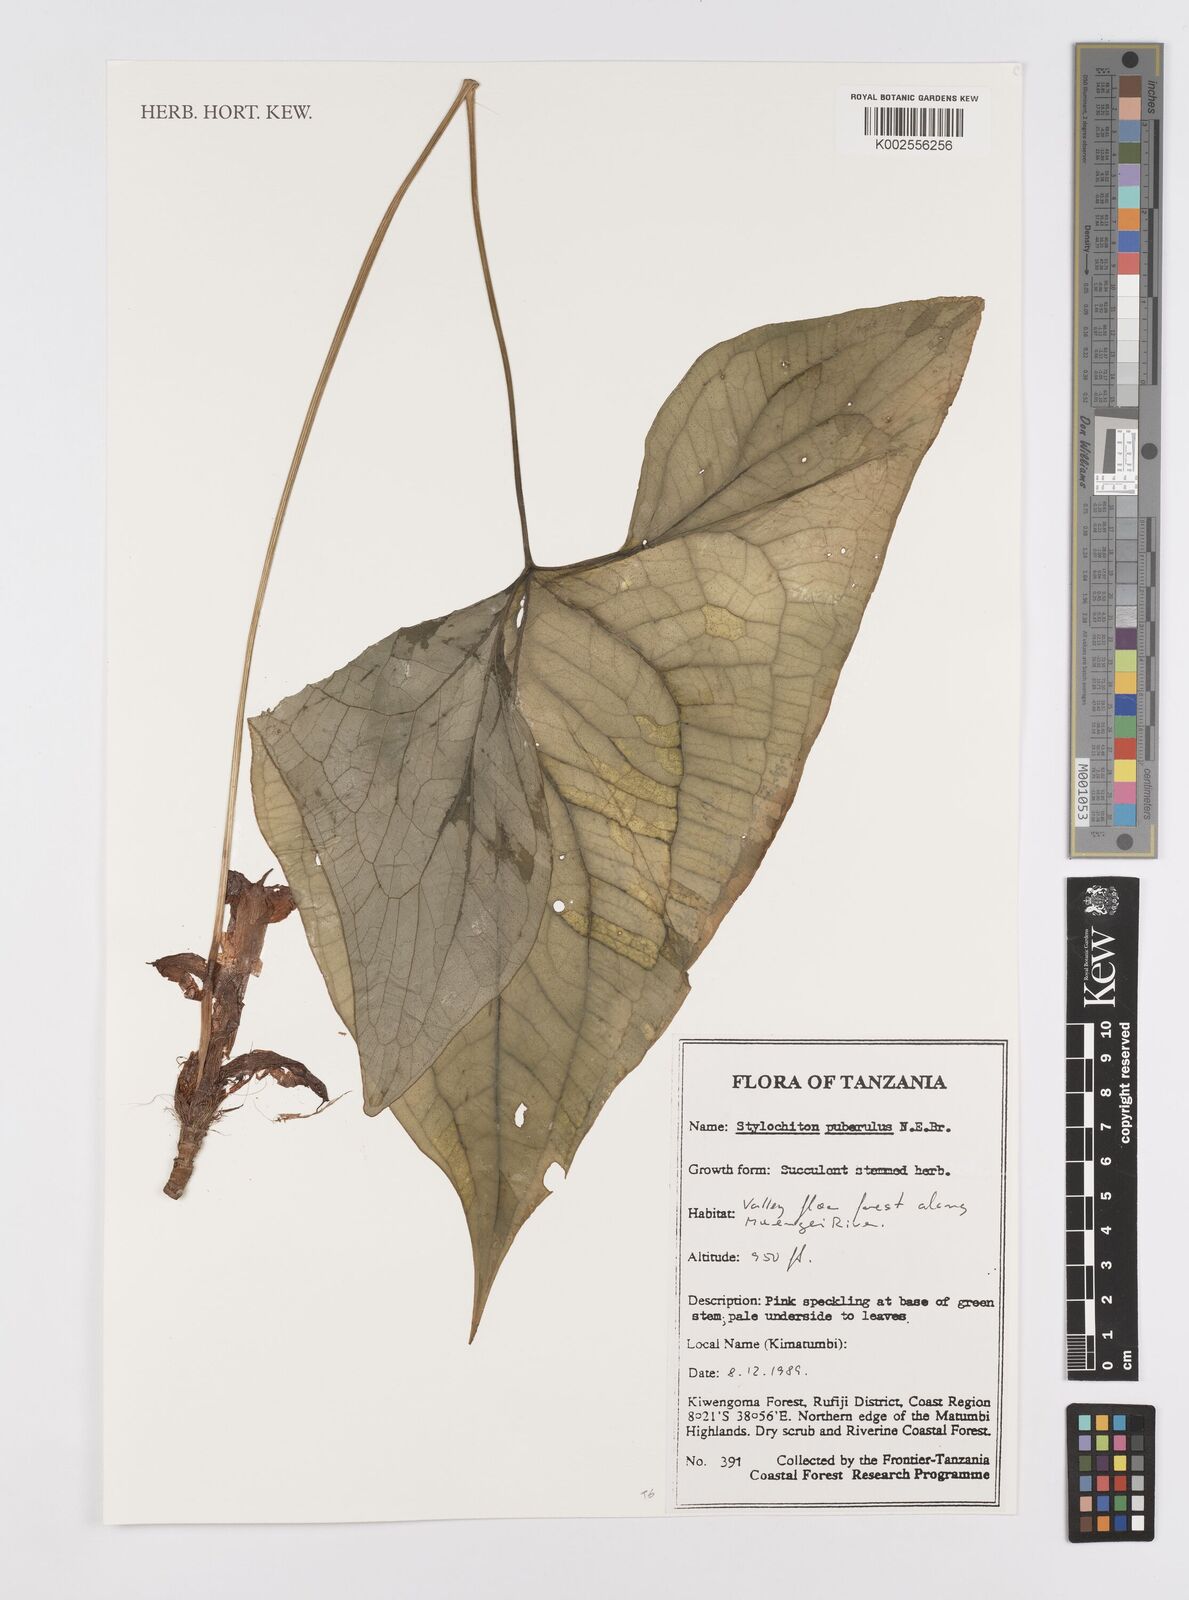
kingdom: Plantae
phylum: Tracheophyta
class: Liliopsida
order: Alismatales
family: Araceae
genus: Stylochaeton
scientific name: Stylochaeton puberulum
